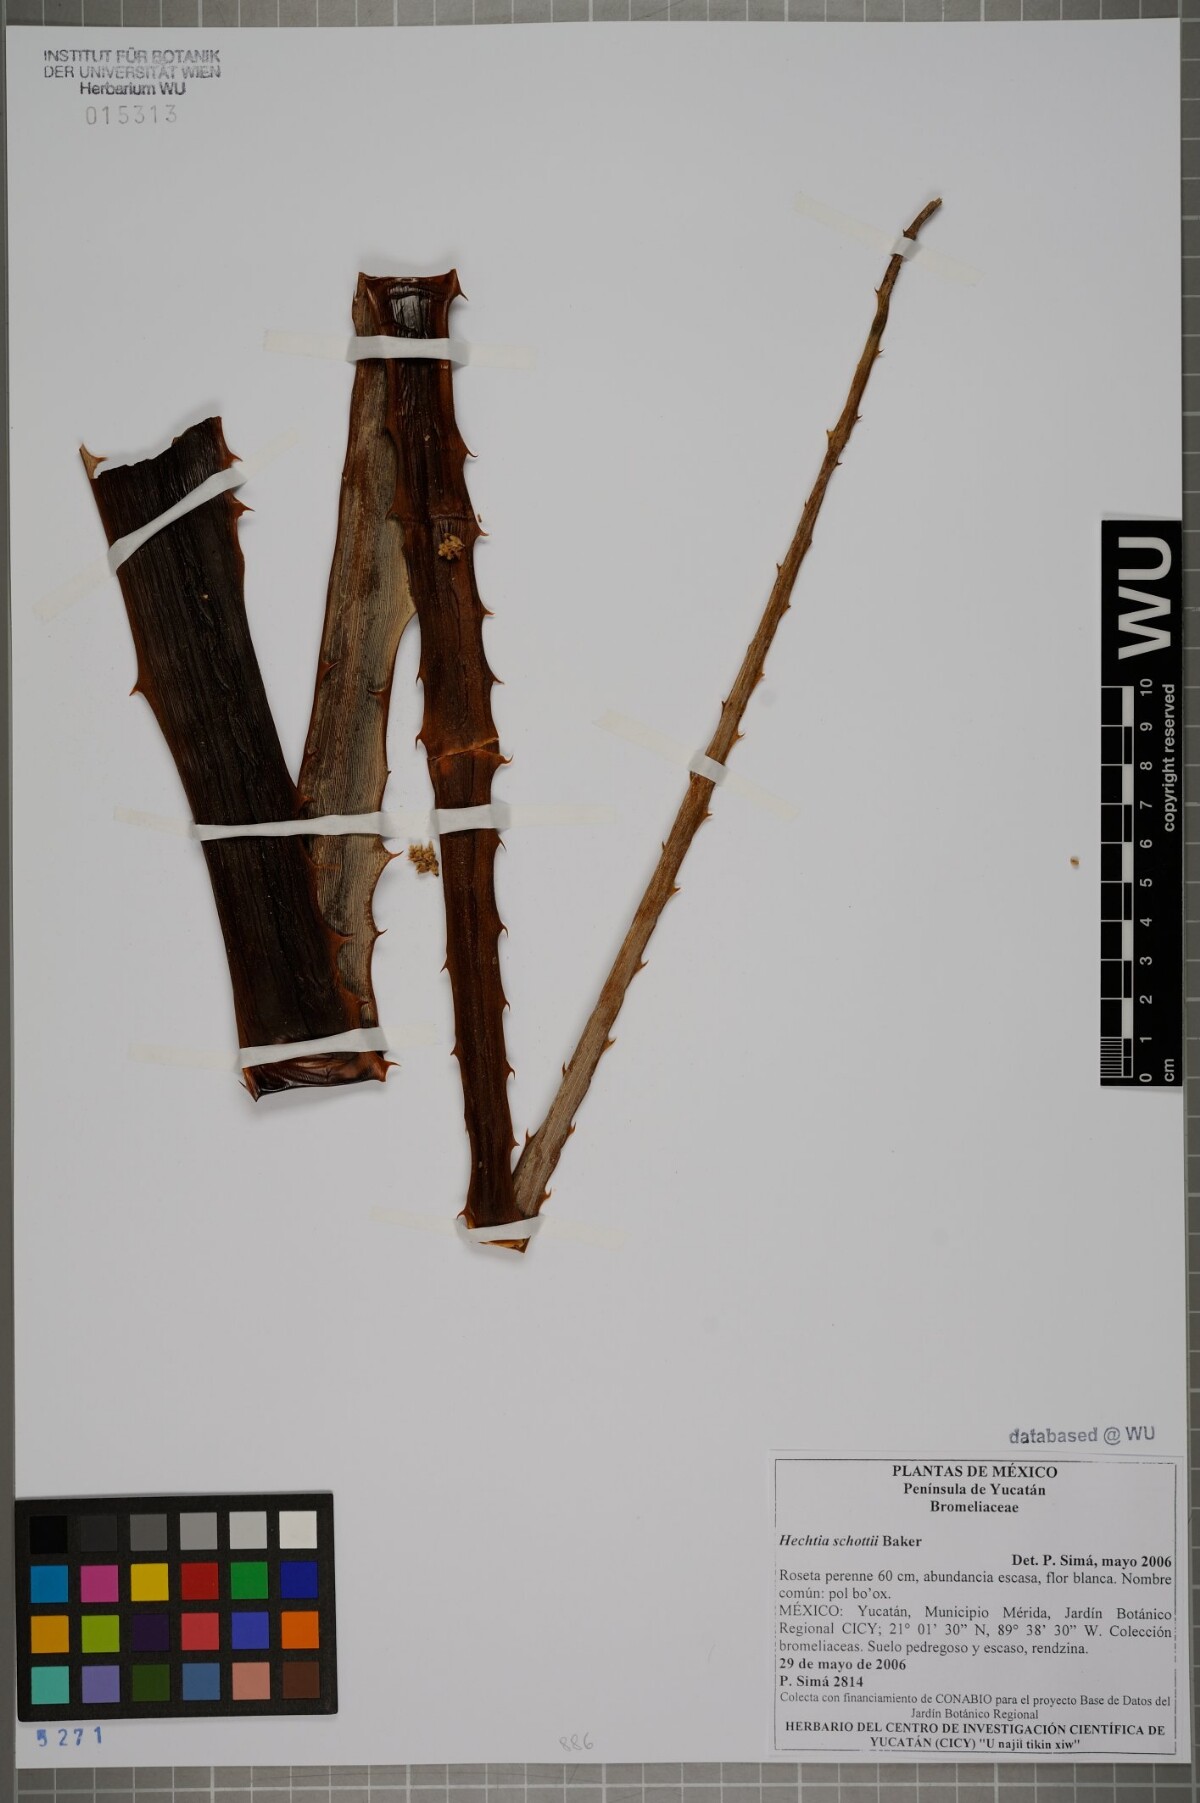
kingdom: Plantae
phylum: Tracheophyta
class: Liliopsida
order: Poales
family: Bromeliaceae
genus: Hechtia
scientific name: Hechtia schottii
